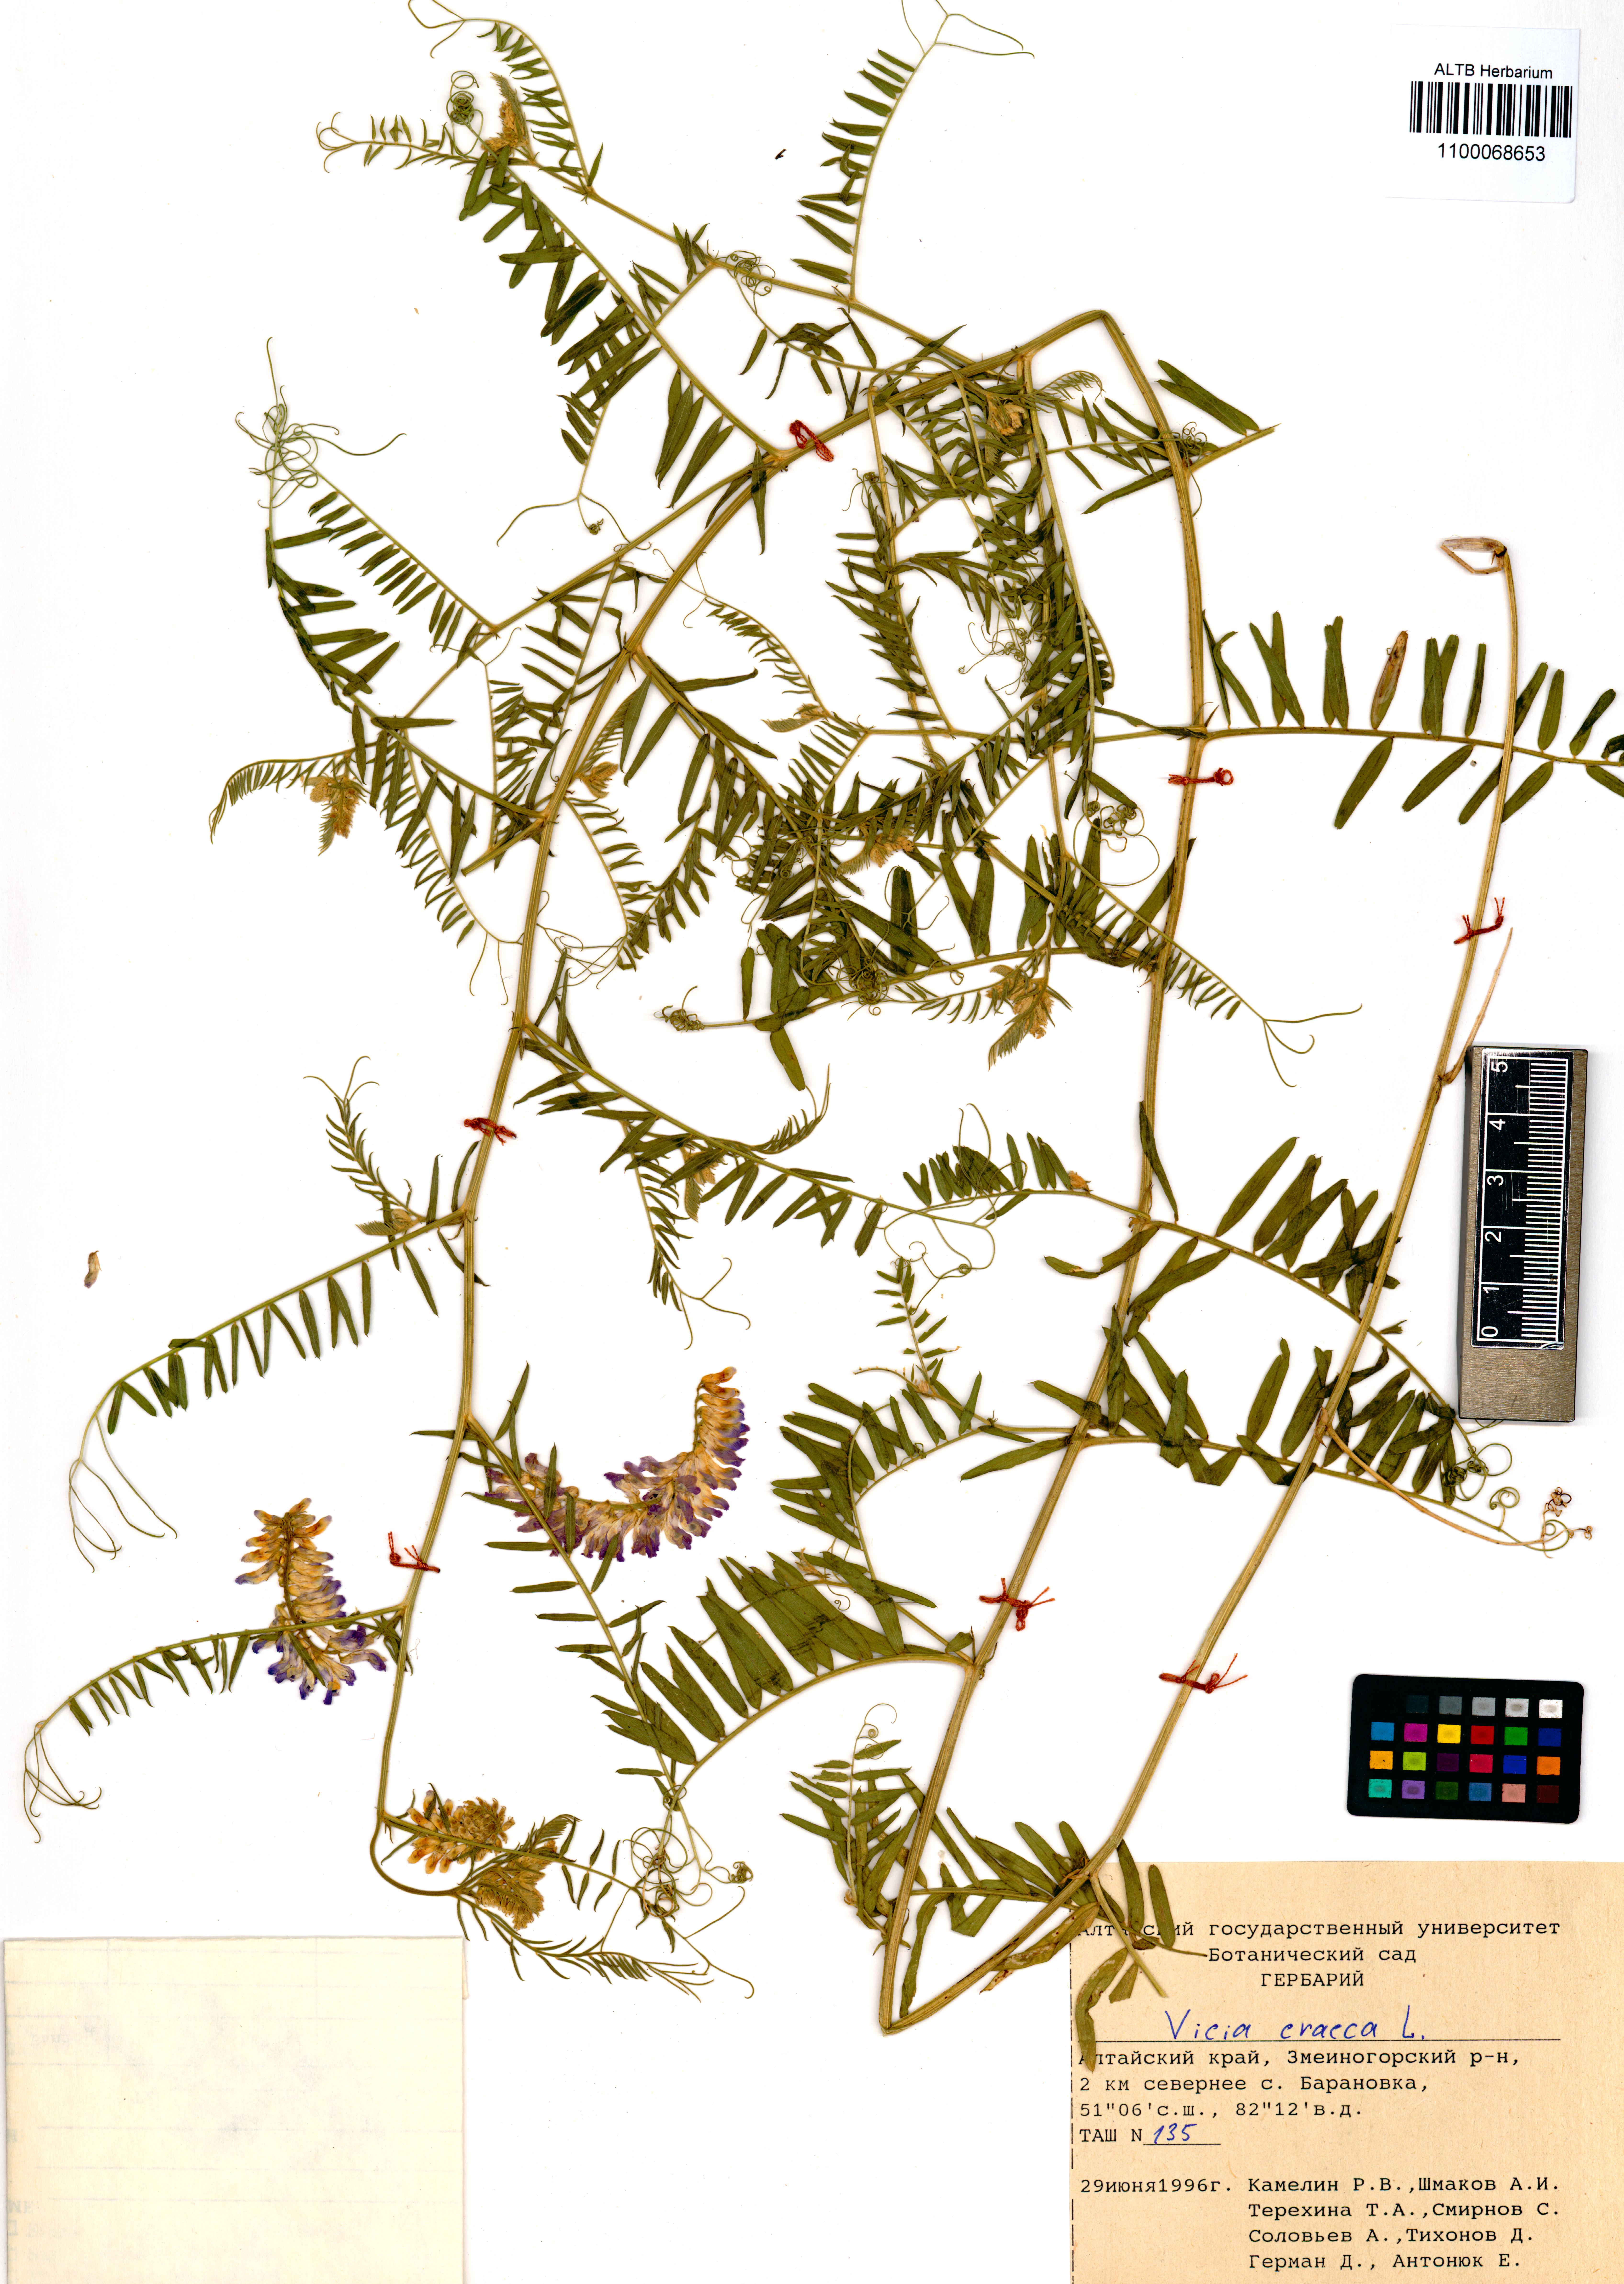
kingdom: Plantae
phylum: Tracheophyta
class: Magnoliopsida
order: Fabales
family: Fabaceae
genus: Vicia
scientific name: Vicia cracca
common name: Bird vetch
